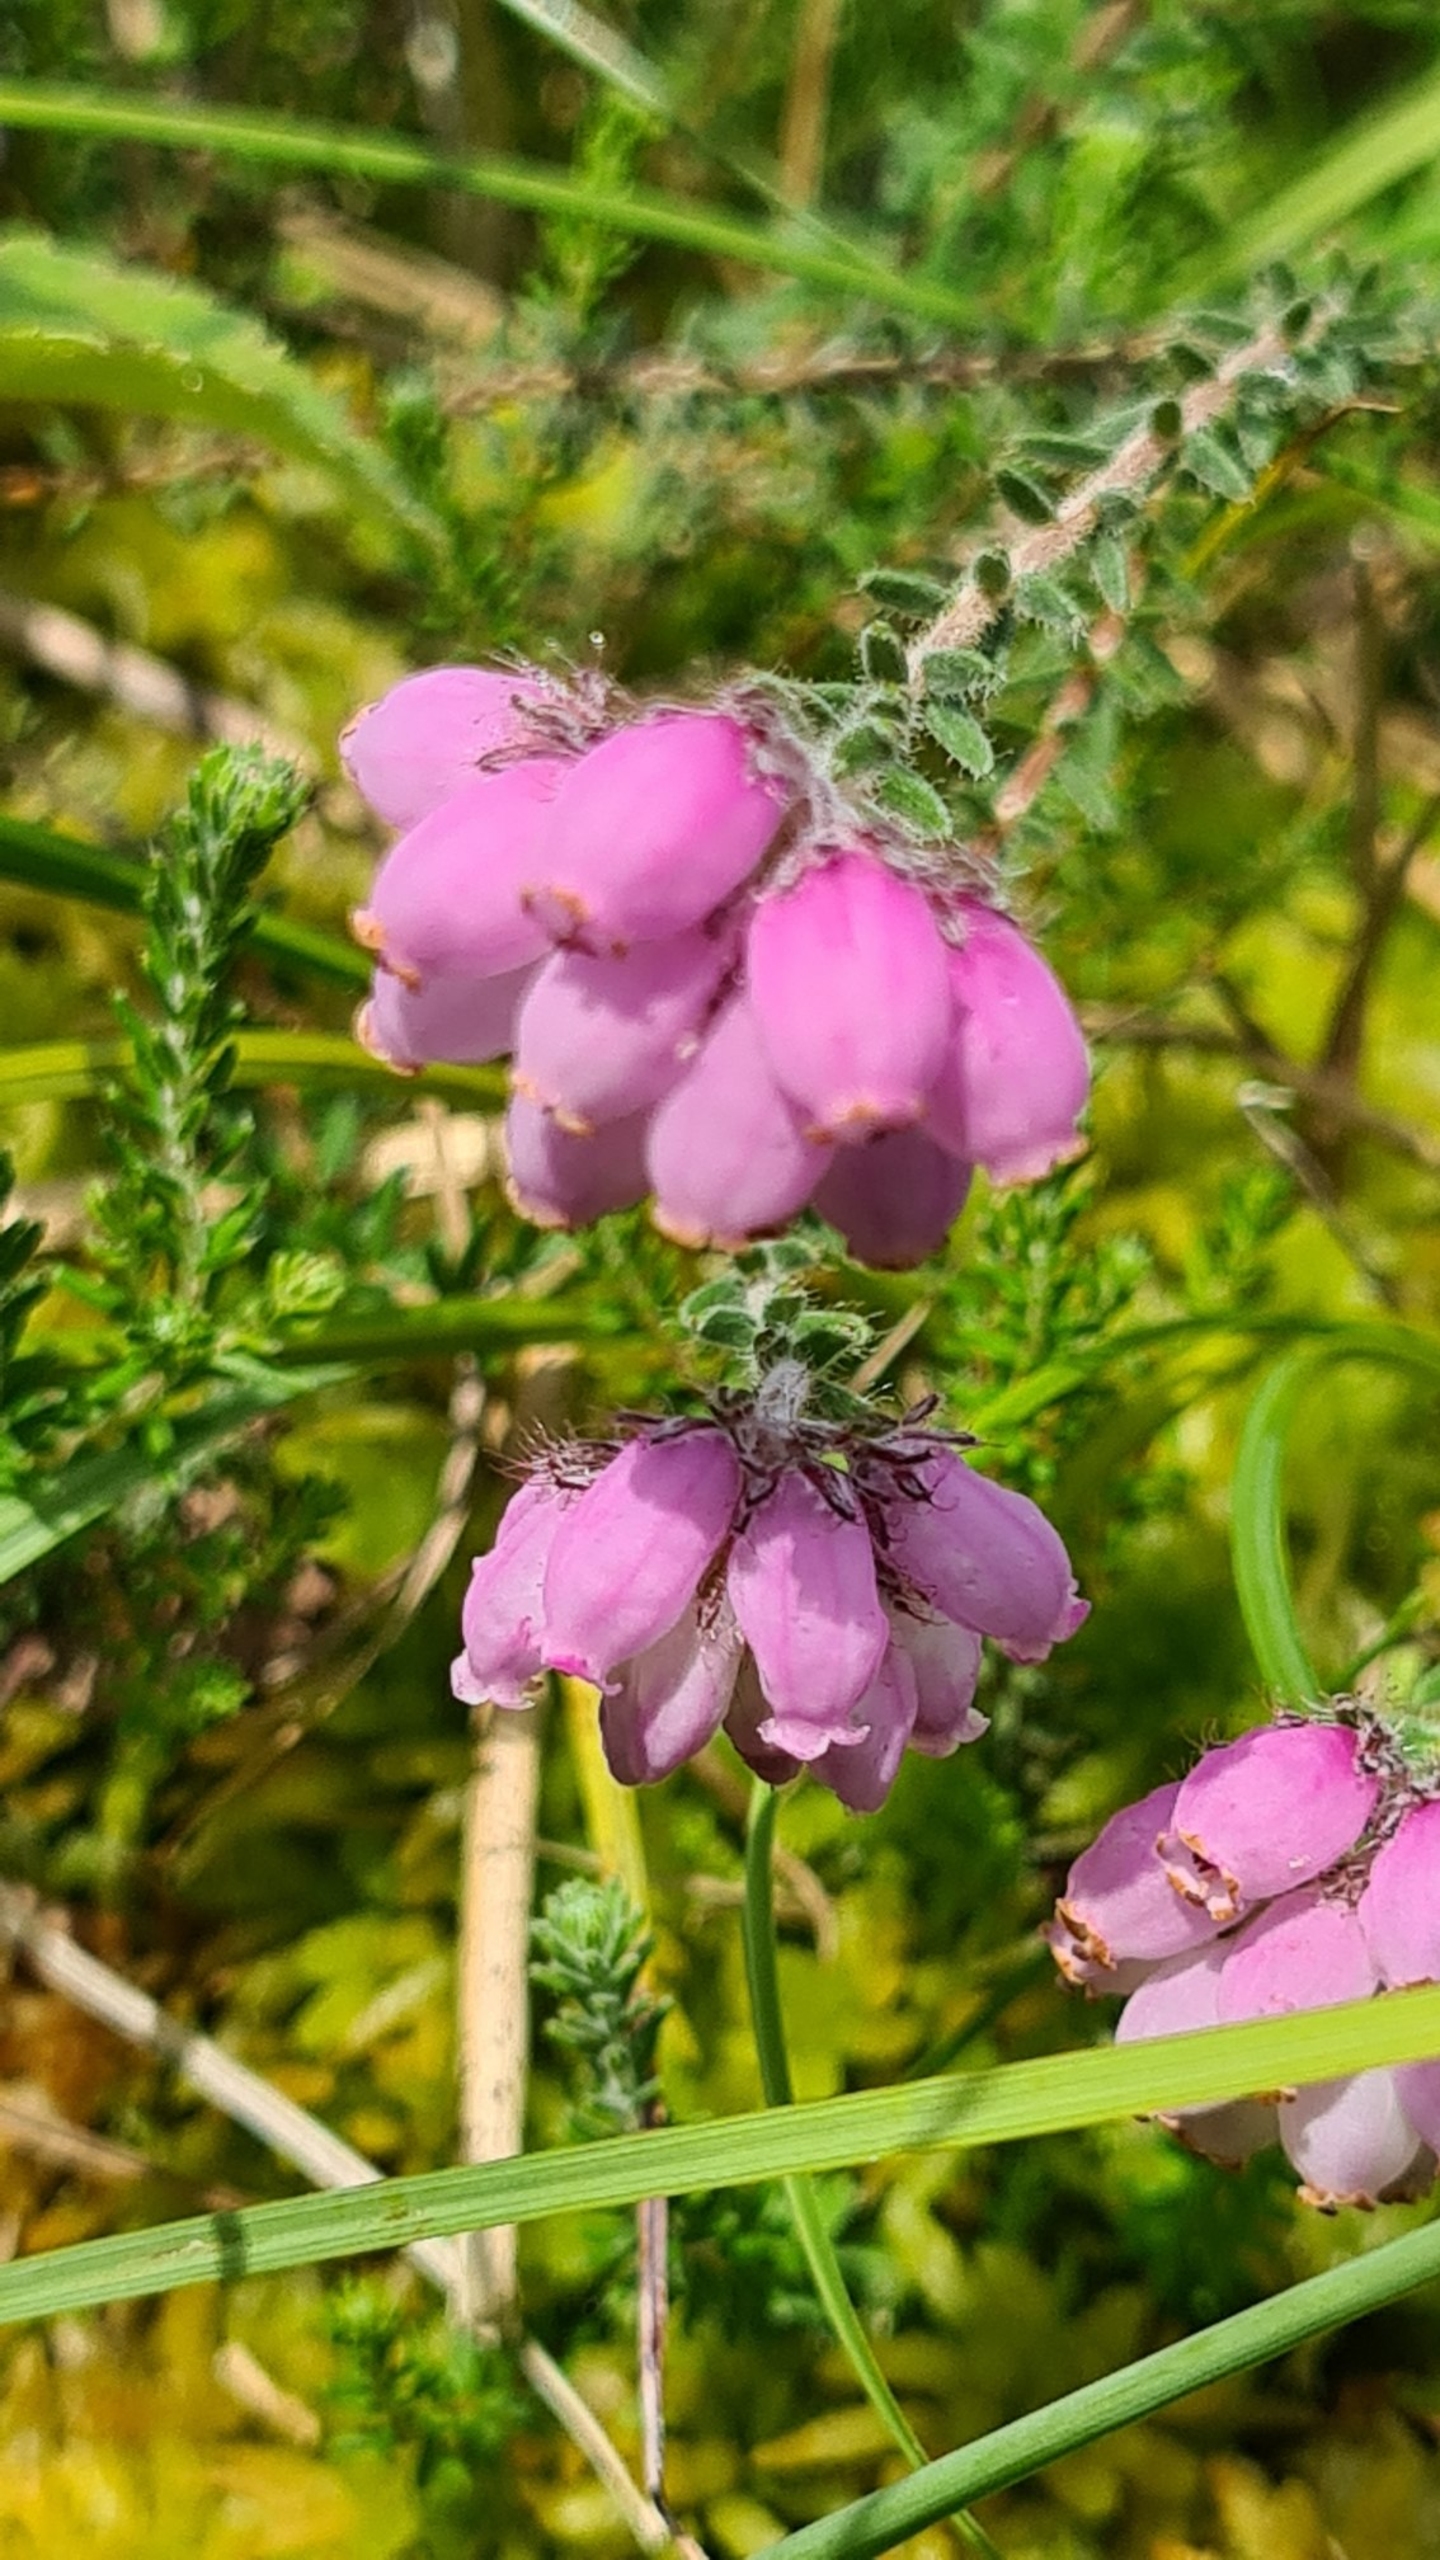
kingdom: Plantae
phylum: Tracheophyta
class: Magnoliopsida
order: Ericales
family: Ericaceae
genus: Erica
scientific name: Erica tetralix
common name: Klokkelyng
